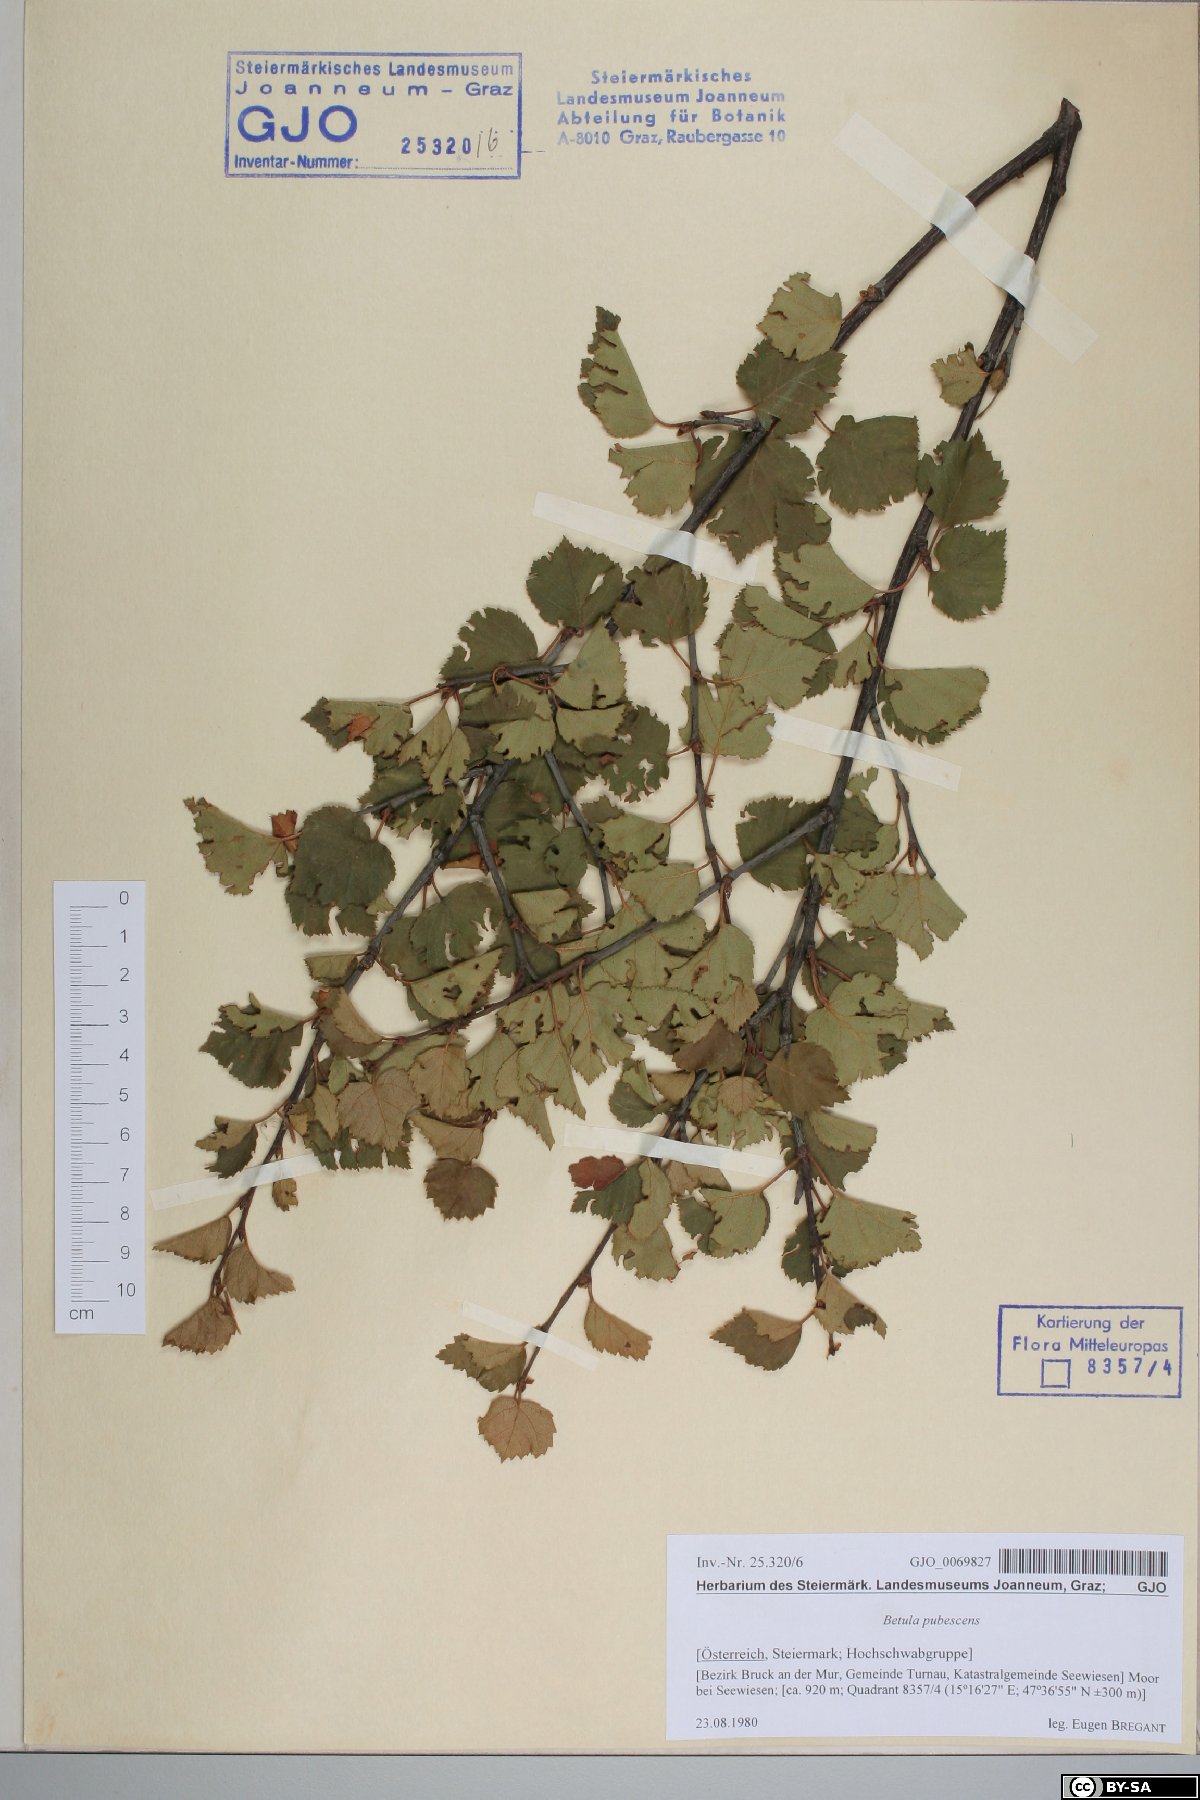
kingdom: Plantae
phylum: Tracheophyta
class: Magnoliopsida
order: Fagales
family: Betulaceae
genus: Betula
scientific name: Betula pubescens
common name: Downy birch
